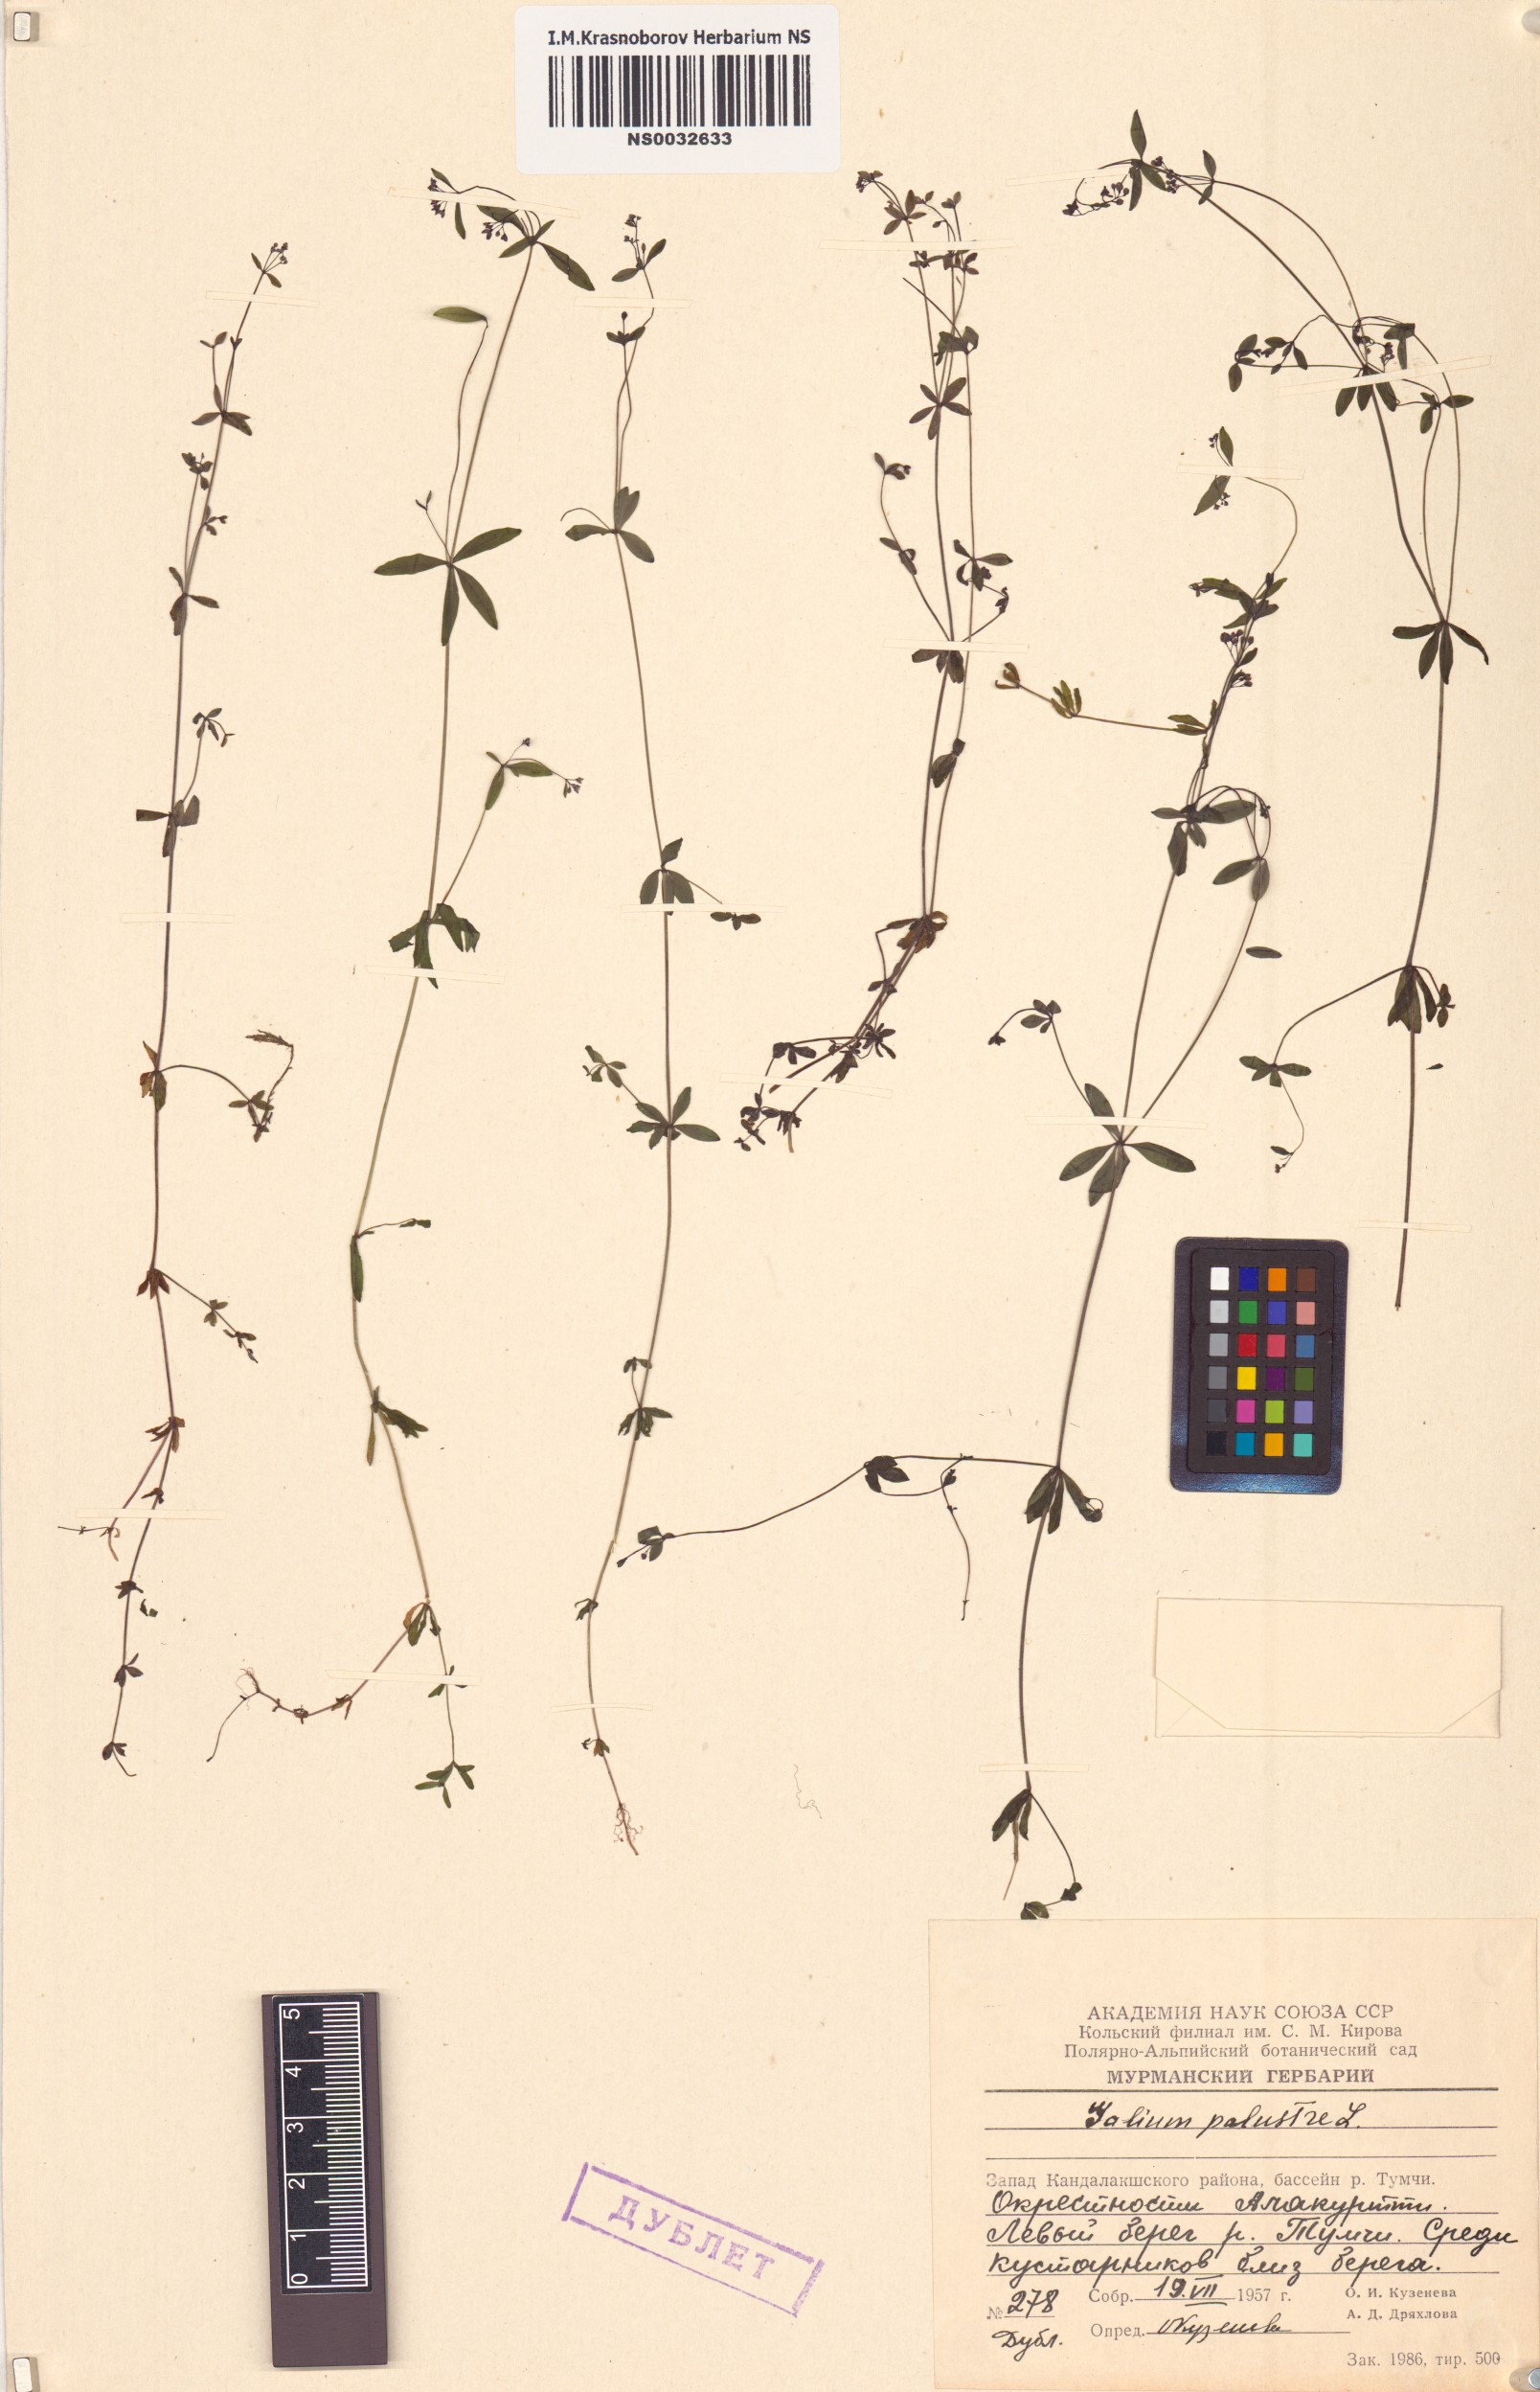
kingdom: Plantae
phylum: Tracheophyta
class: Magnoliopsida
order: Gentianales
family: Rubiaceae
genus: Galium
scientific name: Galium palustre
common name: Common marsh-bedstraw
